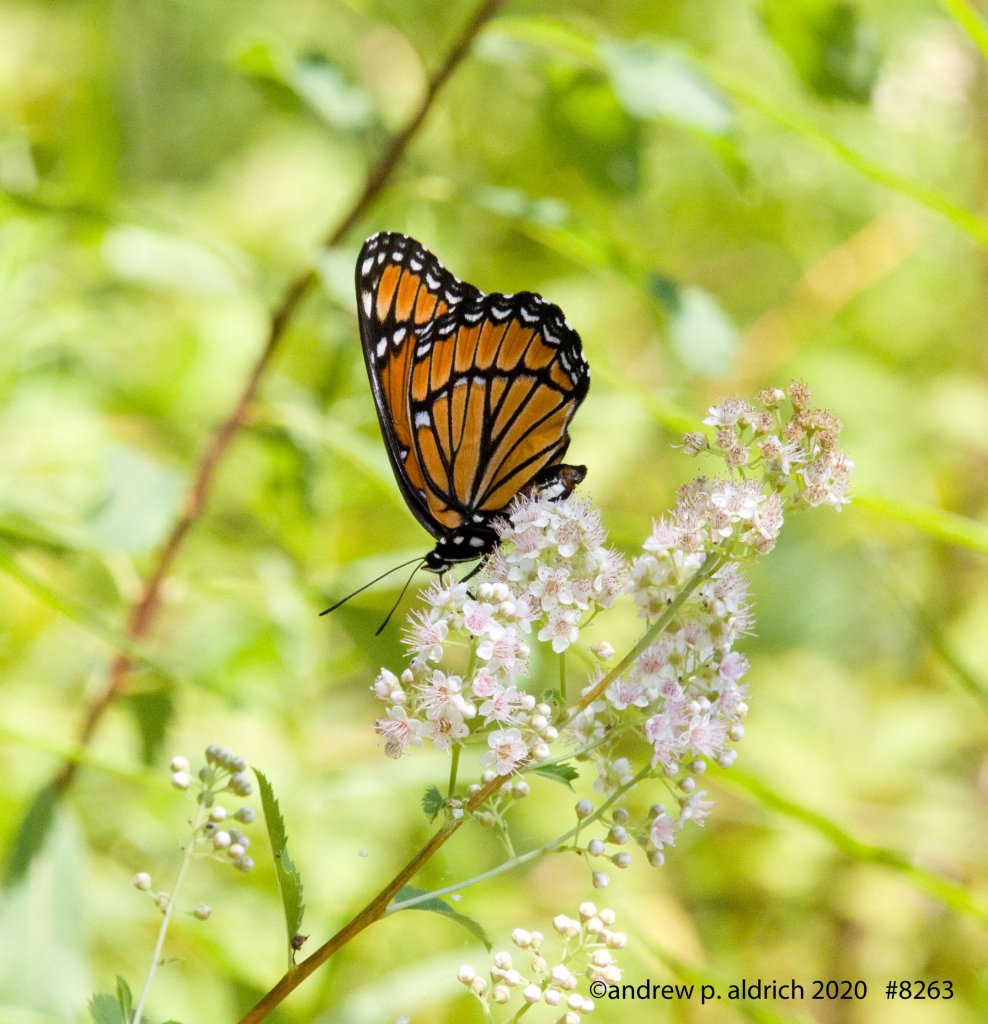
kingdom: Animalia
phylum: Arthropoda
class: Insecta
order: Lepidoptera
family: Nymphalidae
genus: Limenitis
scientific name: Limenitis archippus
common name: Viceroy
